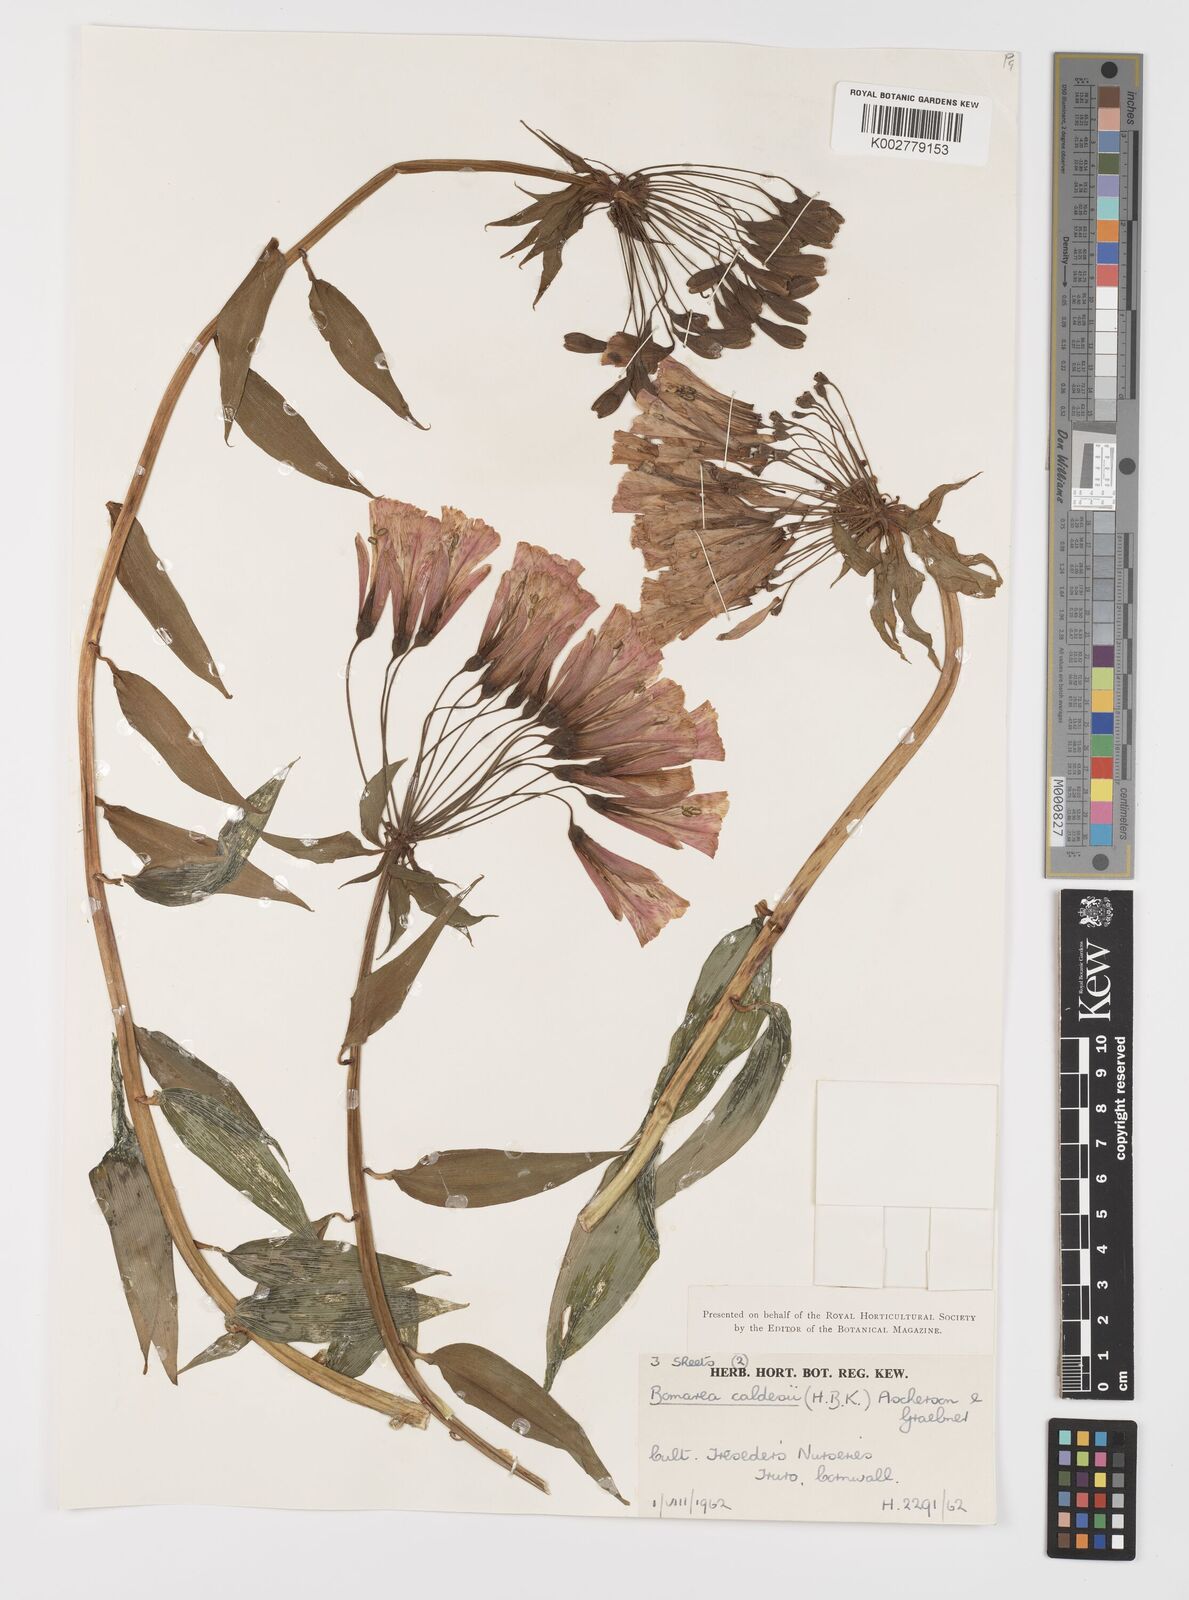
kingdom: Plantae
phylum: Tracheophyta
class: Liliopsida
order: Liliales
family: Alstroemeriaceae
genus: Bomarea
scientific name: Bomarea multiflora
